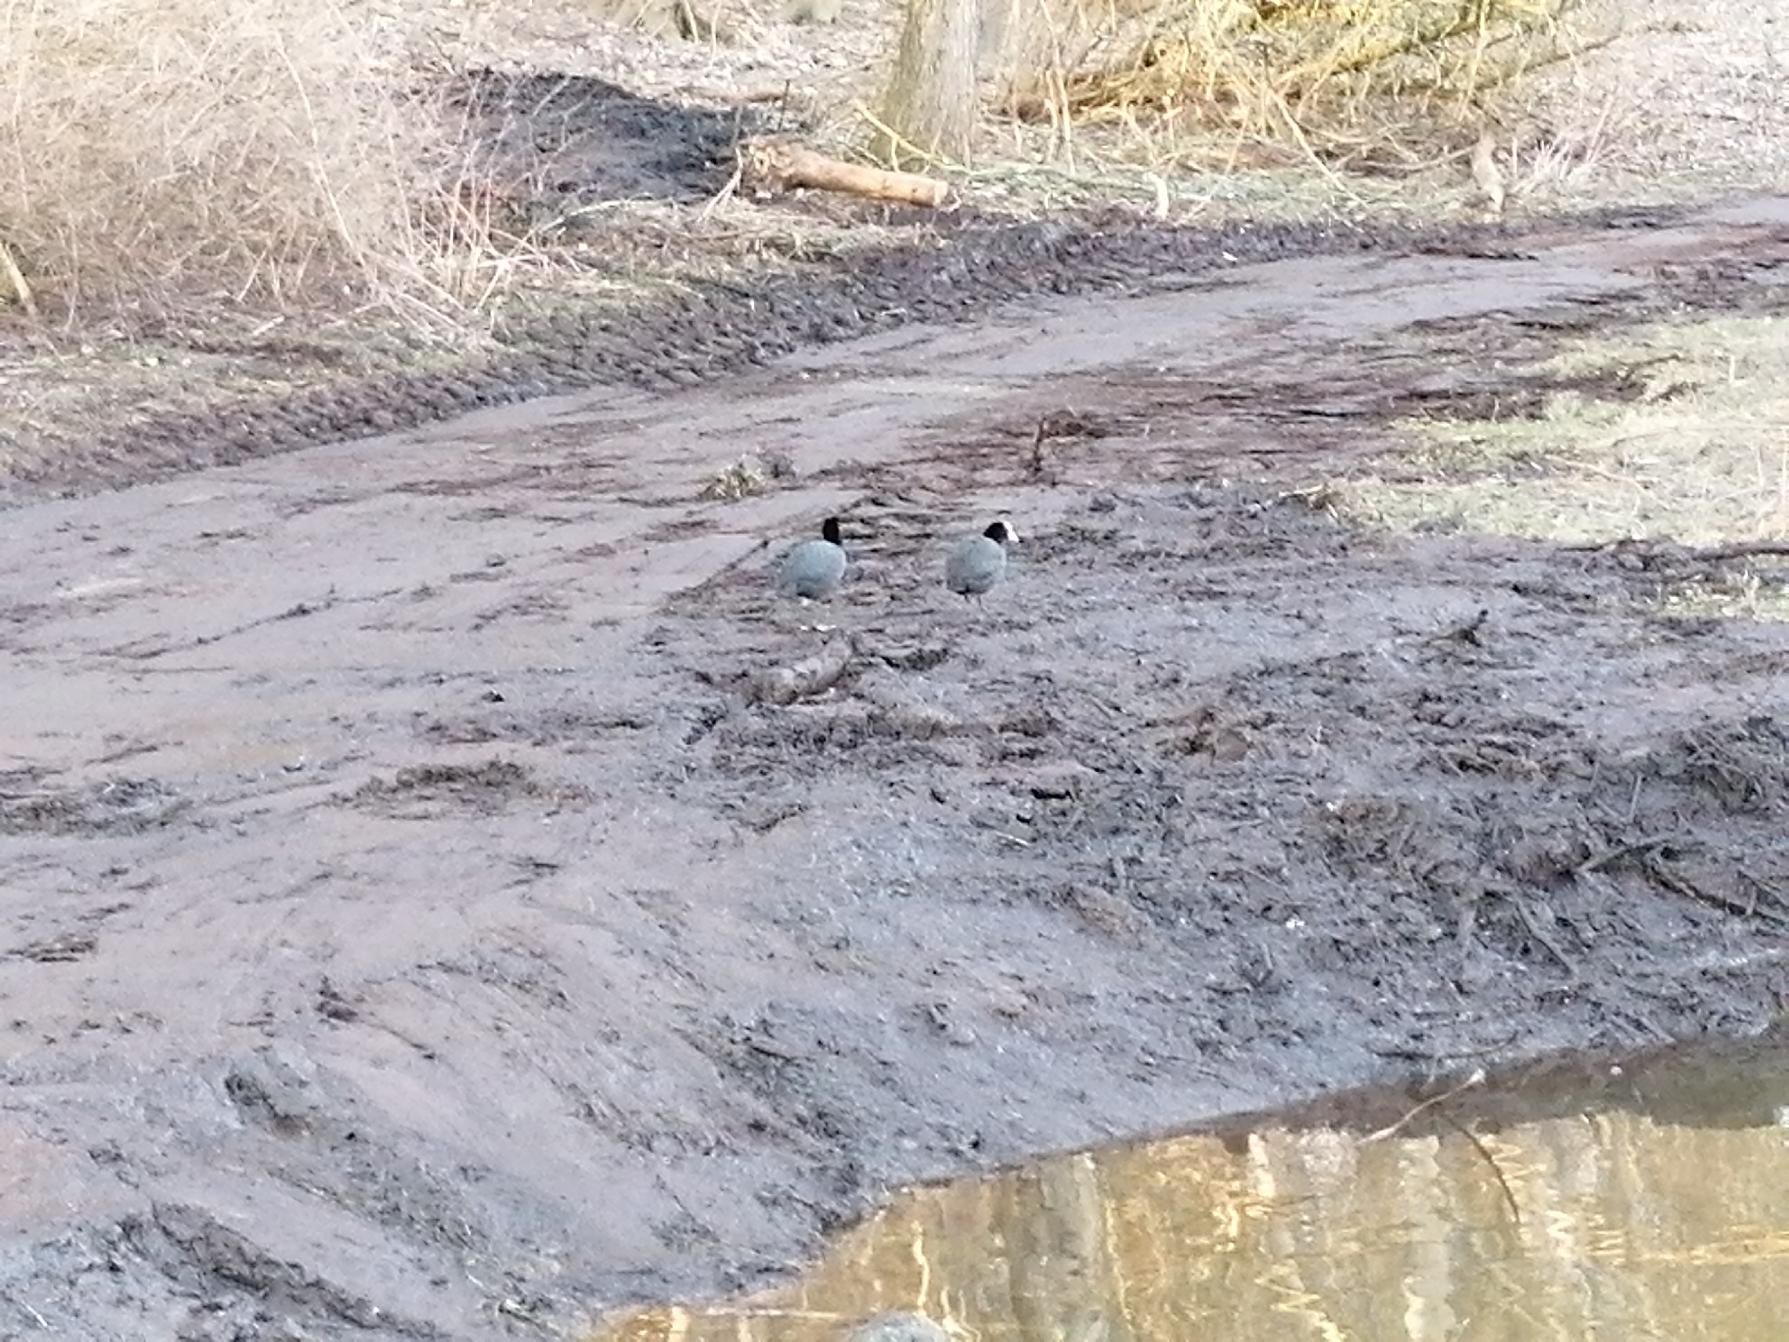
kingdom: Animalia
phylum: Chordata
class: Aves
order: Gruiformes
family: Rallidae
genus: Fulica
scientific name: Fulica atra
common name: Blishøne
